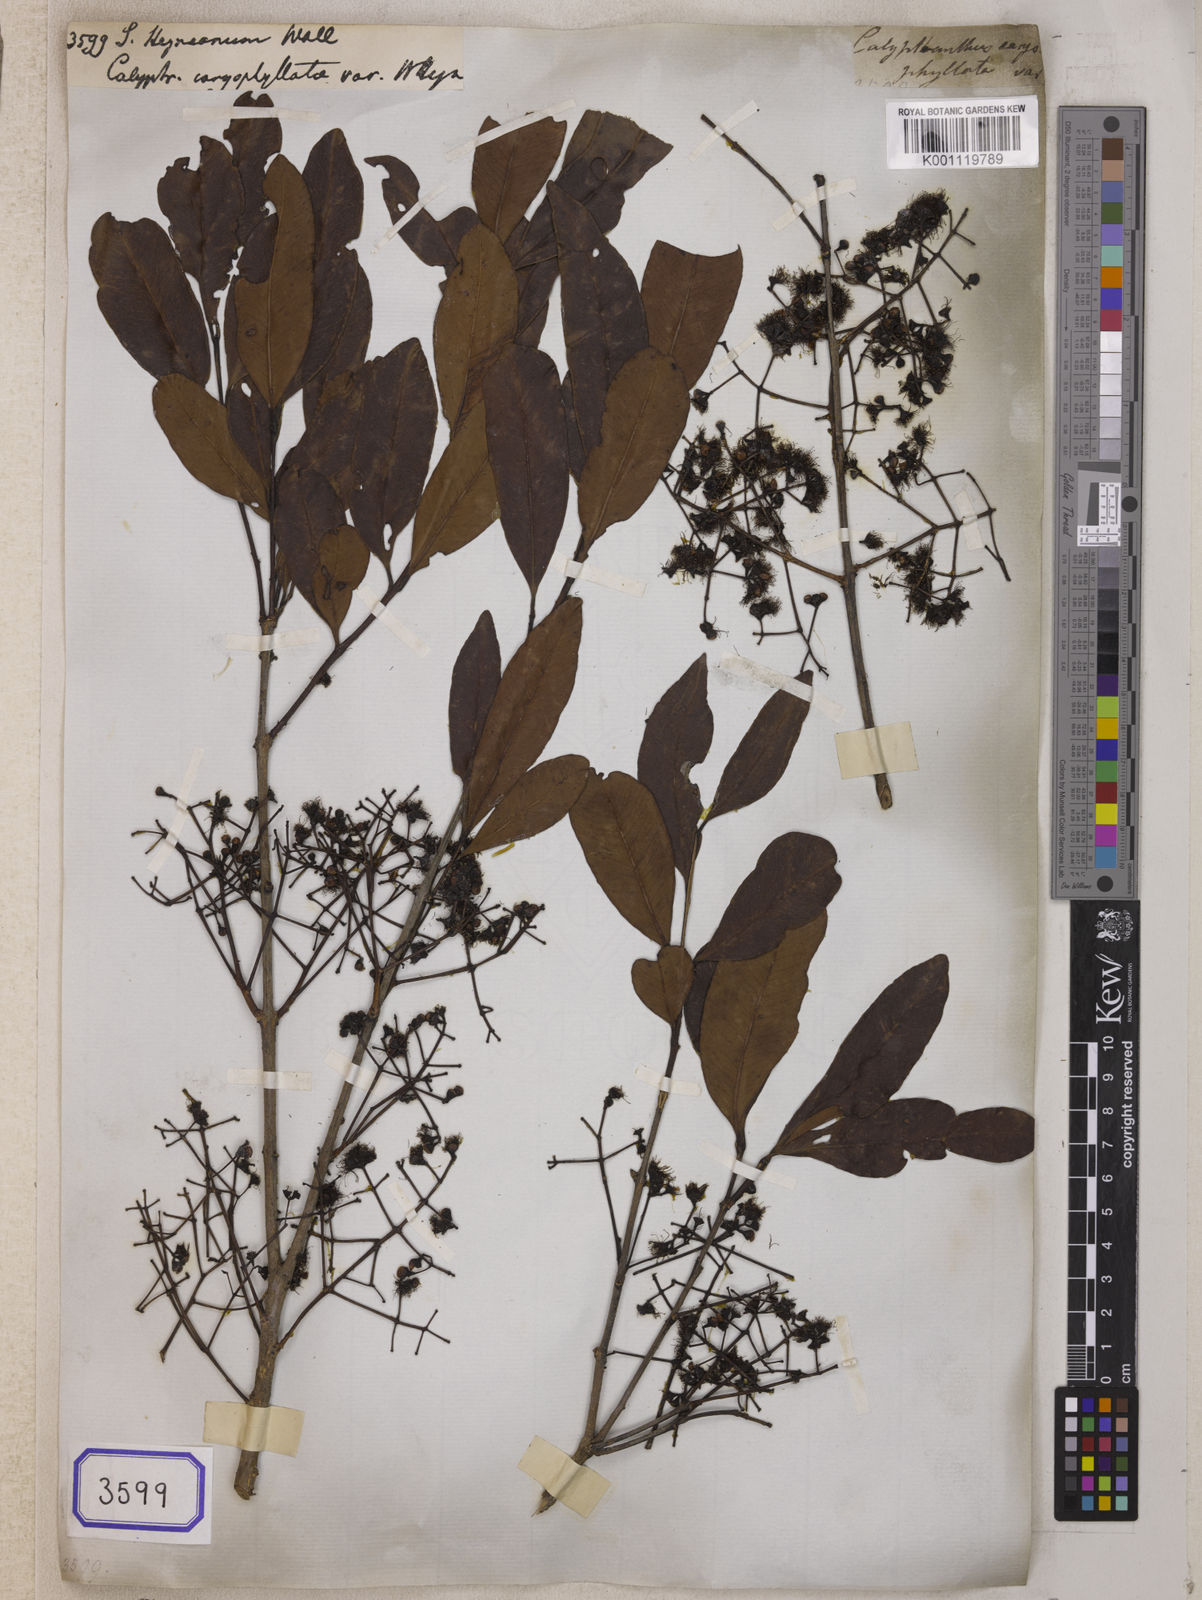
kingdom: Plantae
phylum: Tracheophyta
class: Magnoliopsida
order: Myrtales
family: Myrtaceae
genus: Syzygium
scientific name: Syzygium
